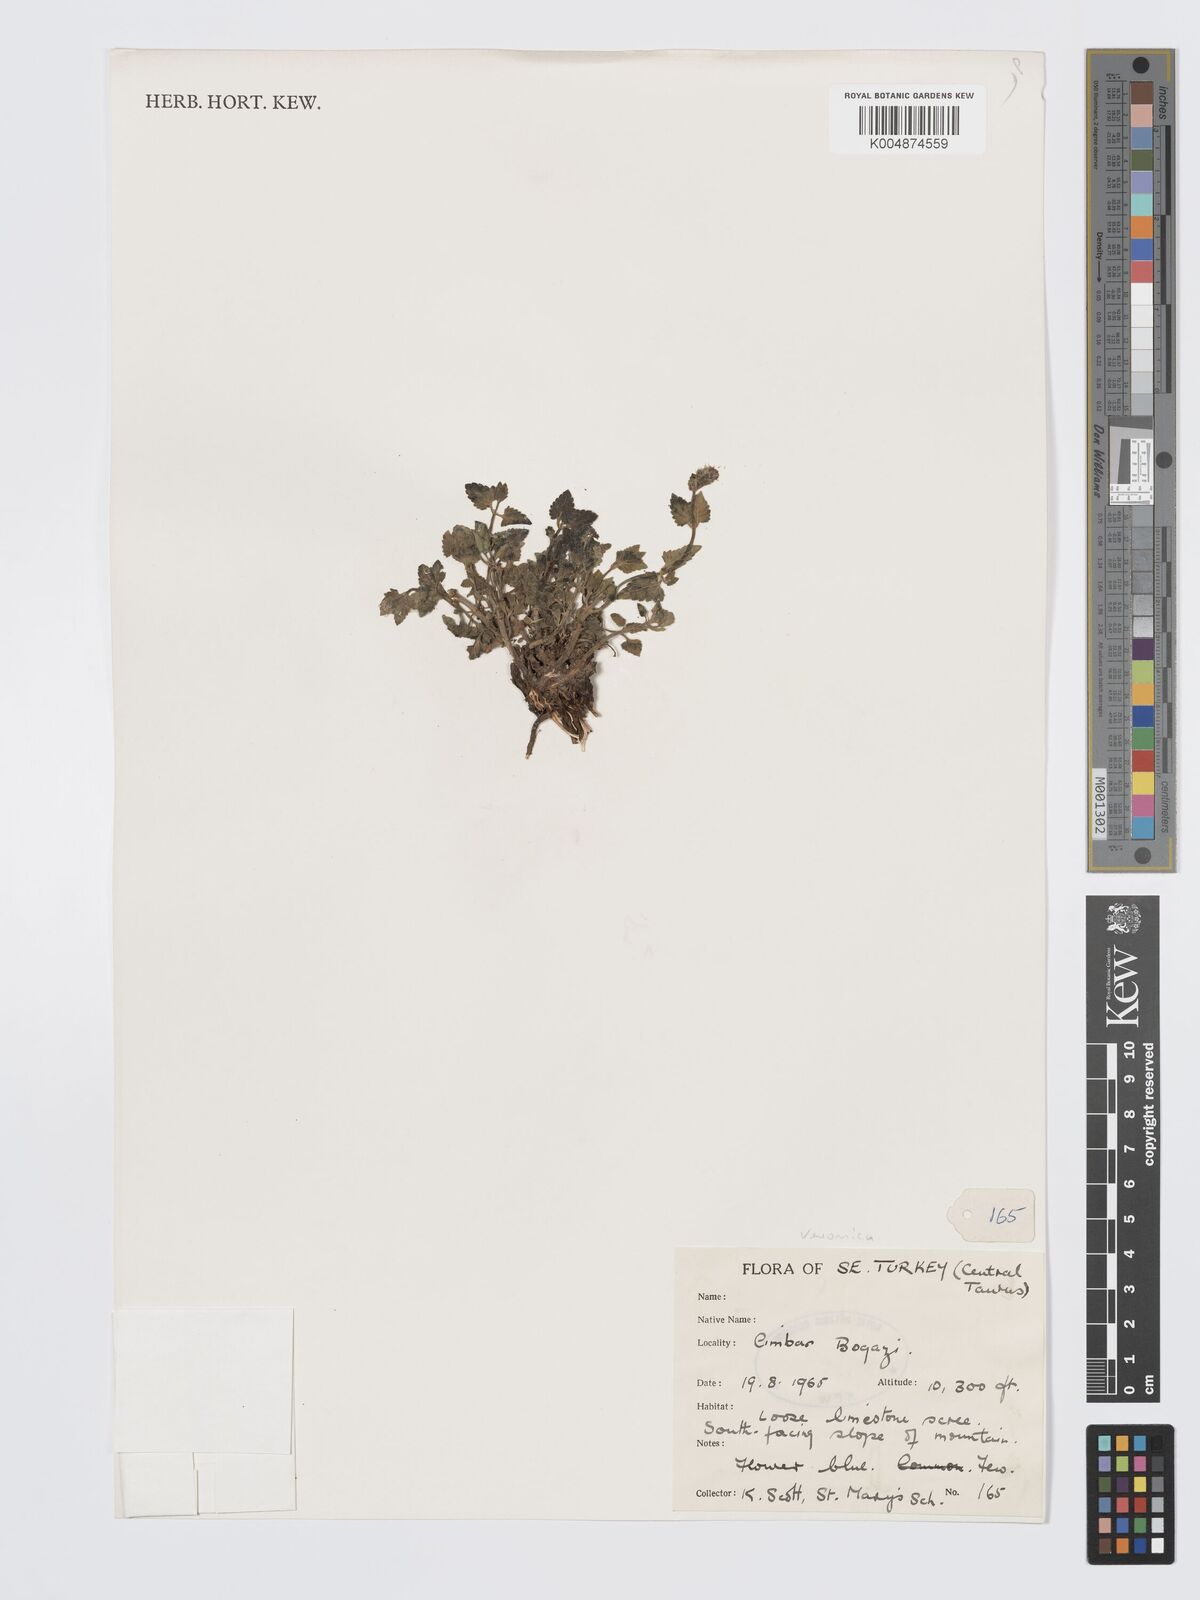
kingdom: Plantae
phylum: Tracheophyta
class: Magnoliopsida
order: Lamiales
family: Plantaginaceae
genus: Veronica
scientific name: Veronica
